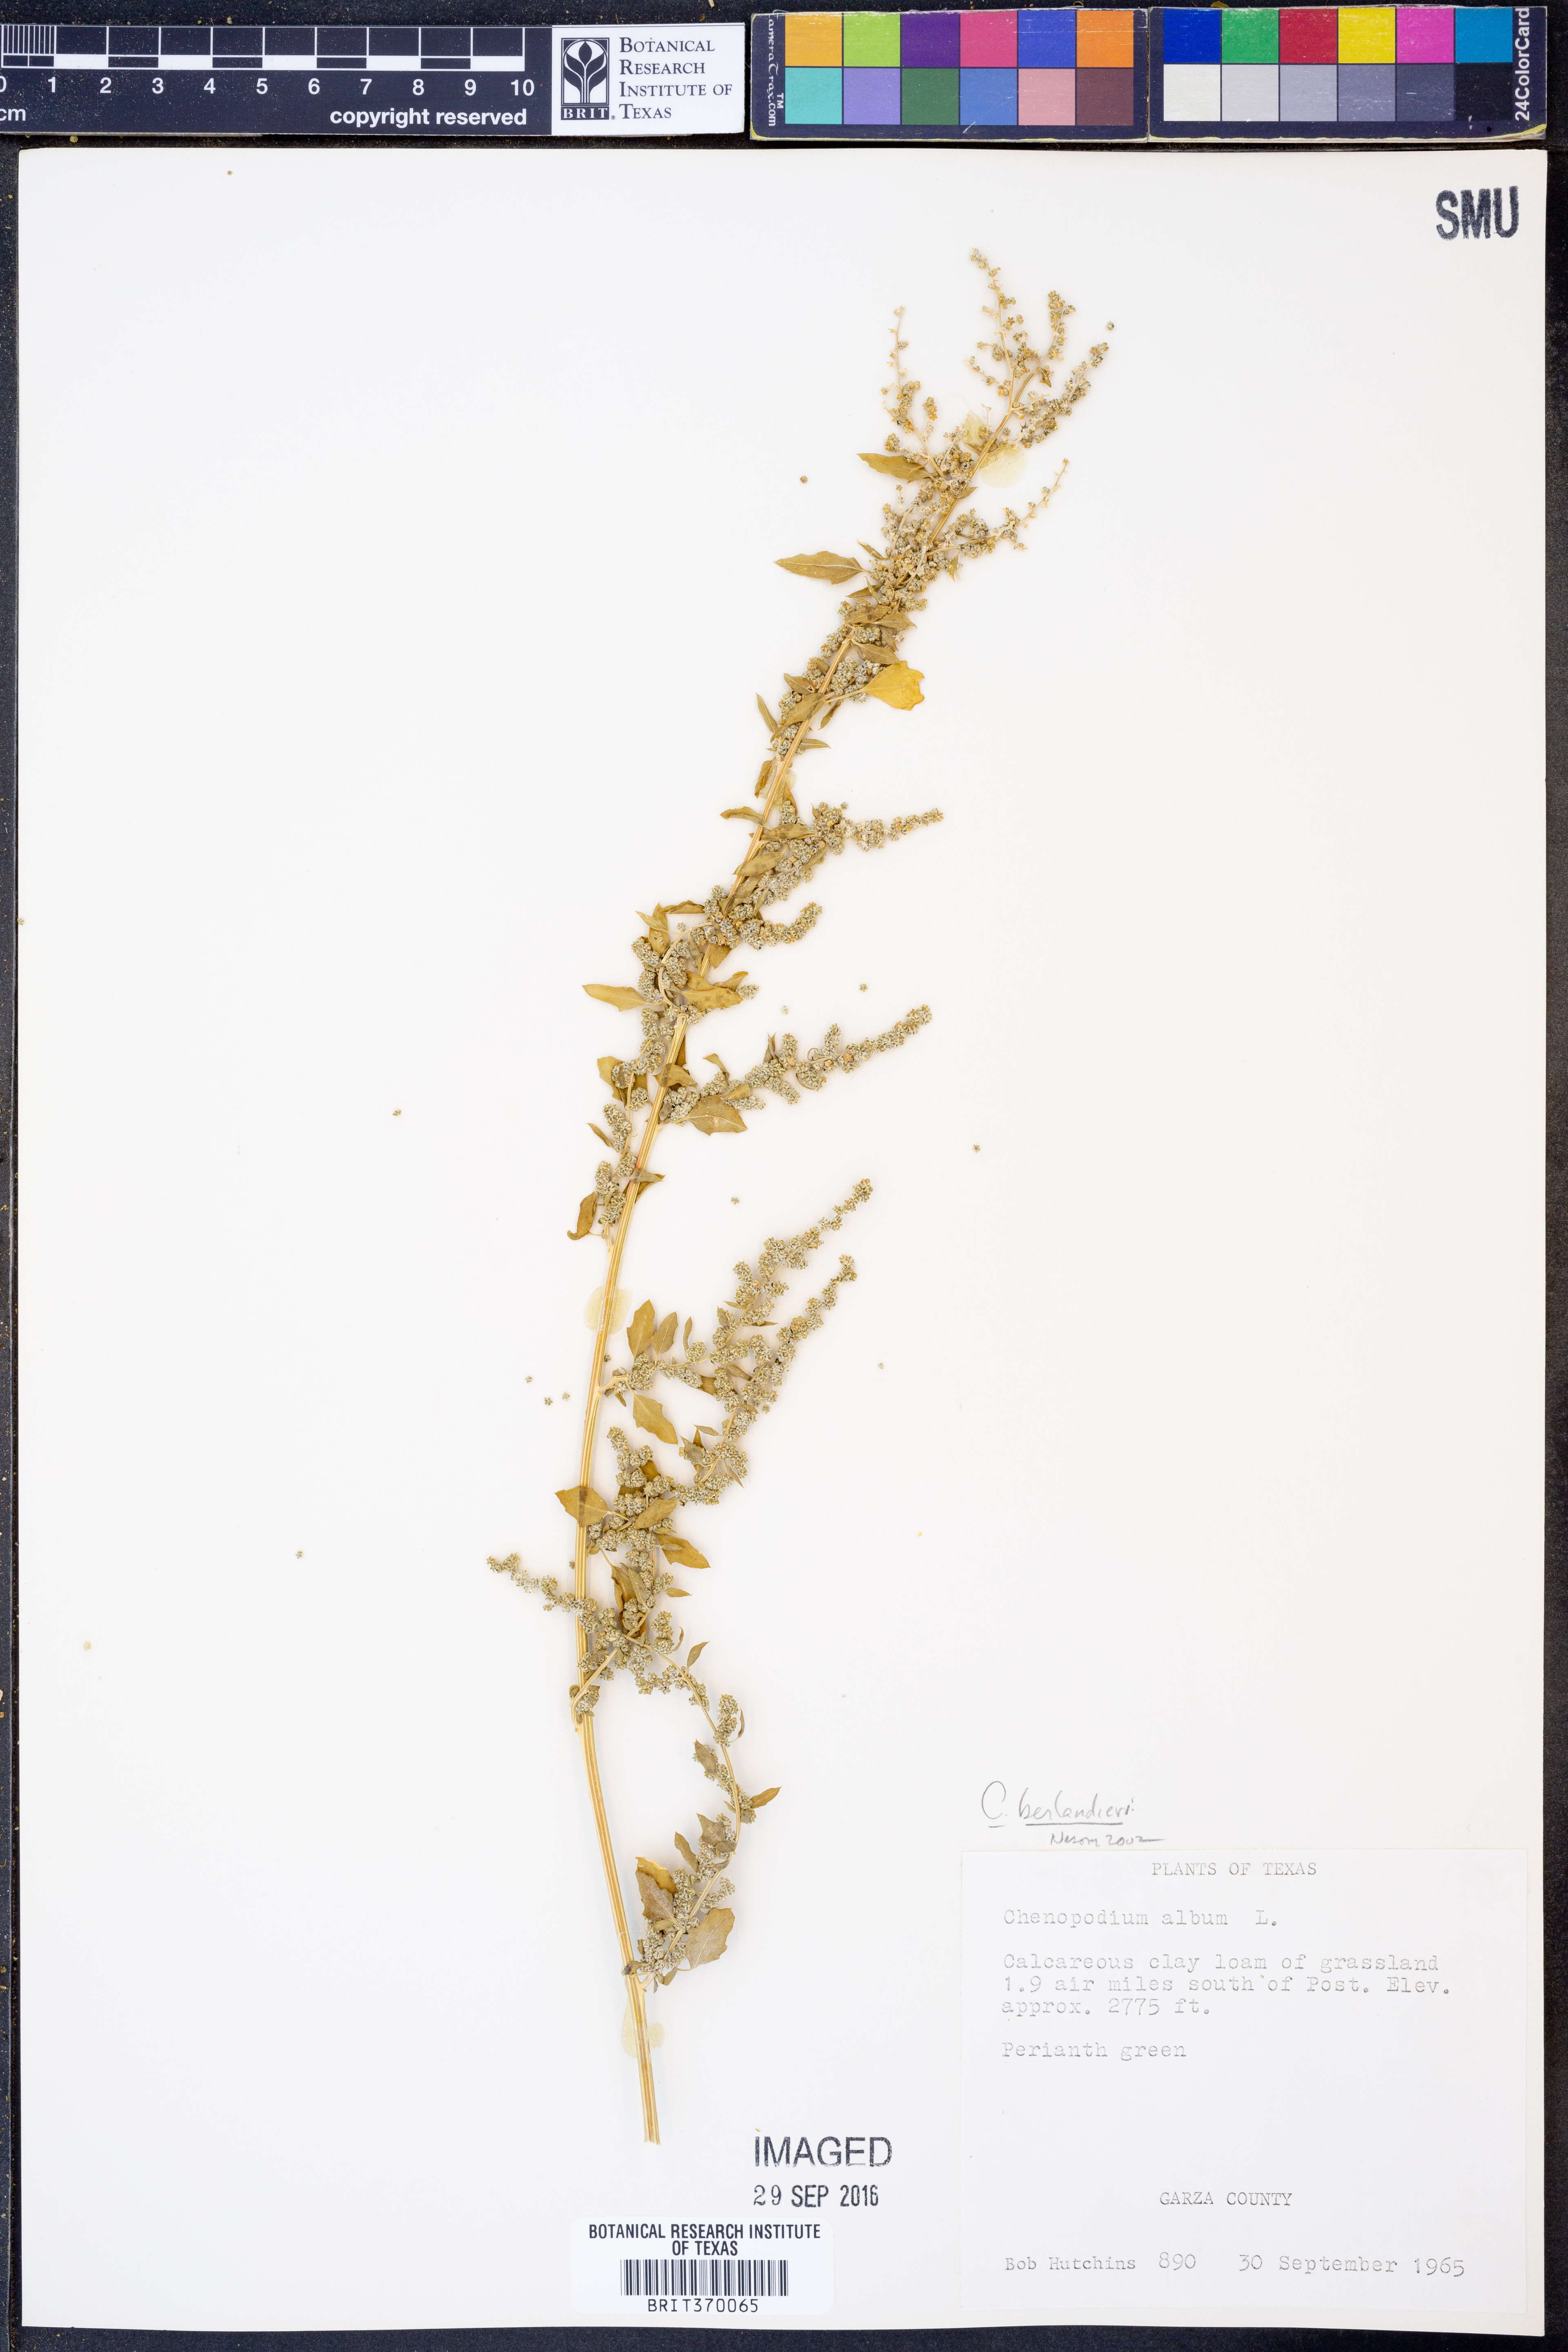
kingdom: Plantae
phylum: Tracheophyta
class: Magnoliopsida
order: Caryophyllales
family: Amaranthaceae
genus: Chenopodium
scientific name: Chenopodium berlandieri
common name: Pit-seed goosefoot
